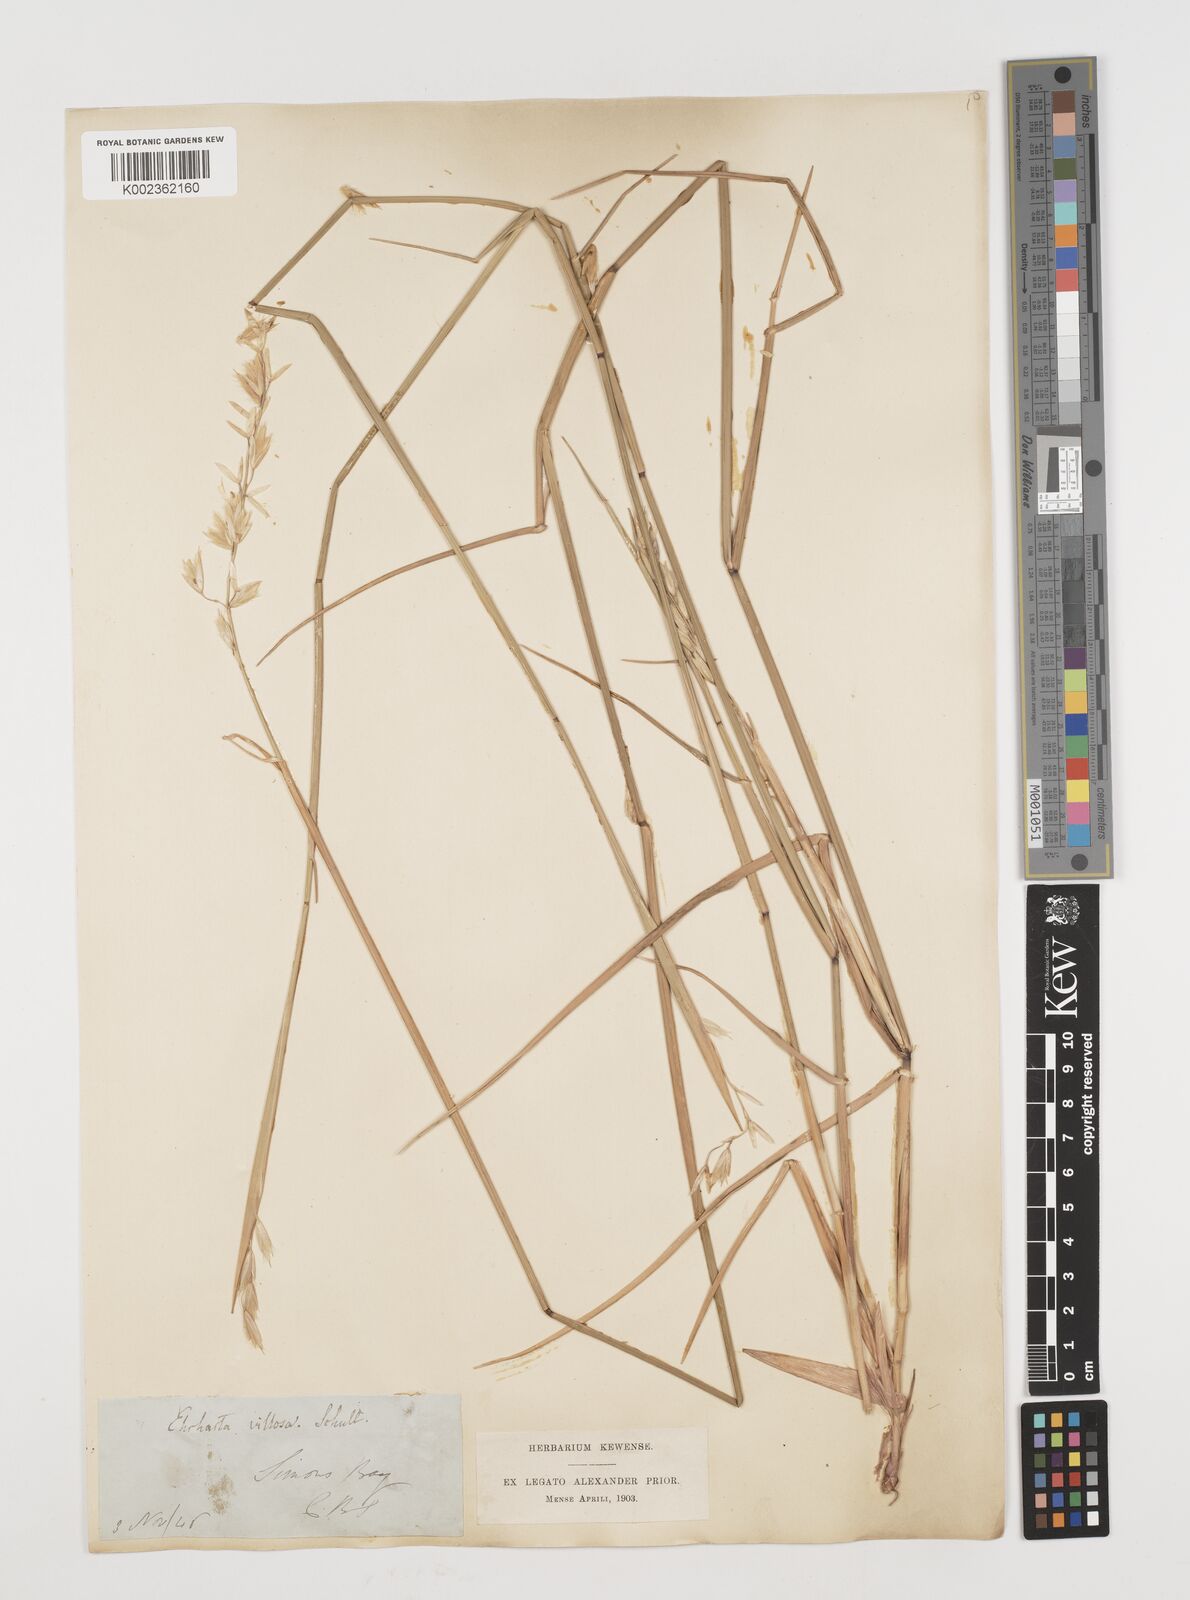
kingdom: Plantae
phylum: Tracheophyta
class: Liliopsida
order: Poales
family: Poaceae
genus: Ehrharta
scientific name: Ehrharta villosa
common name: Pyp grass
